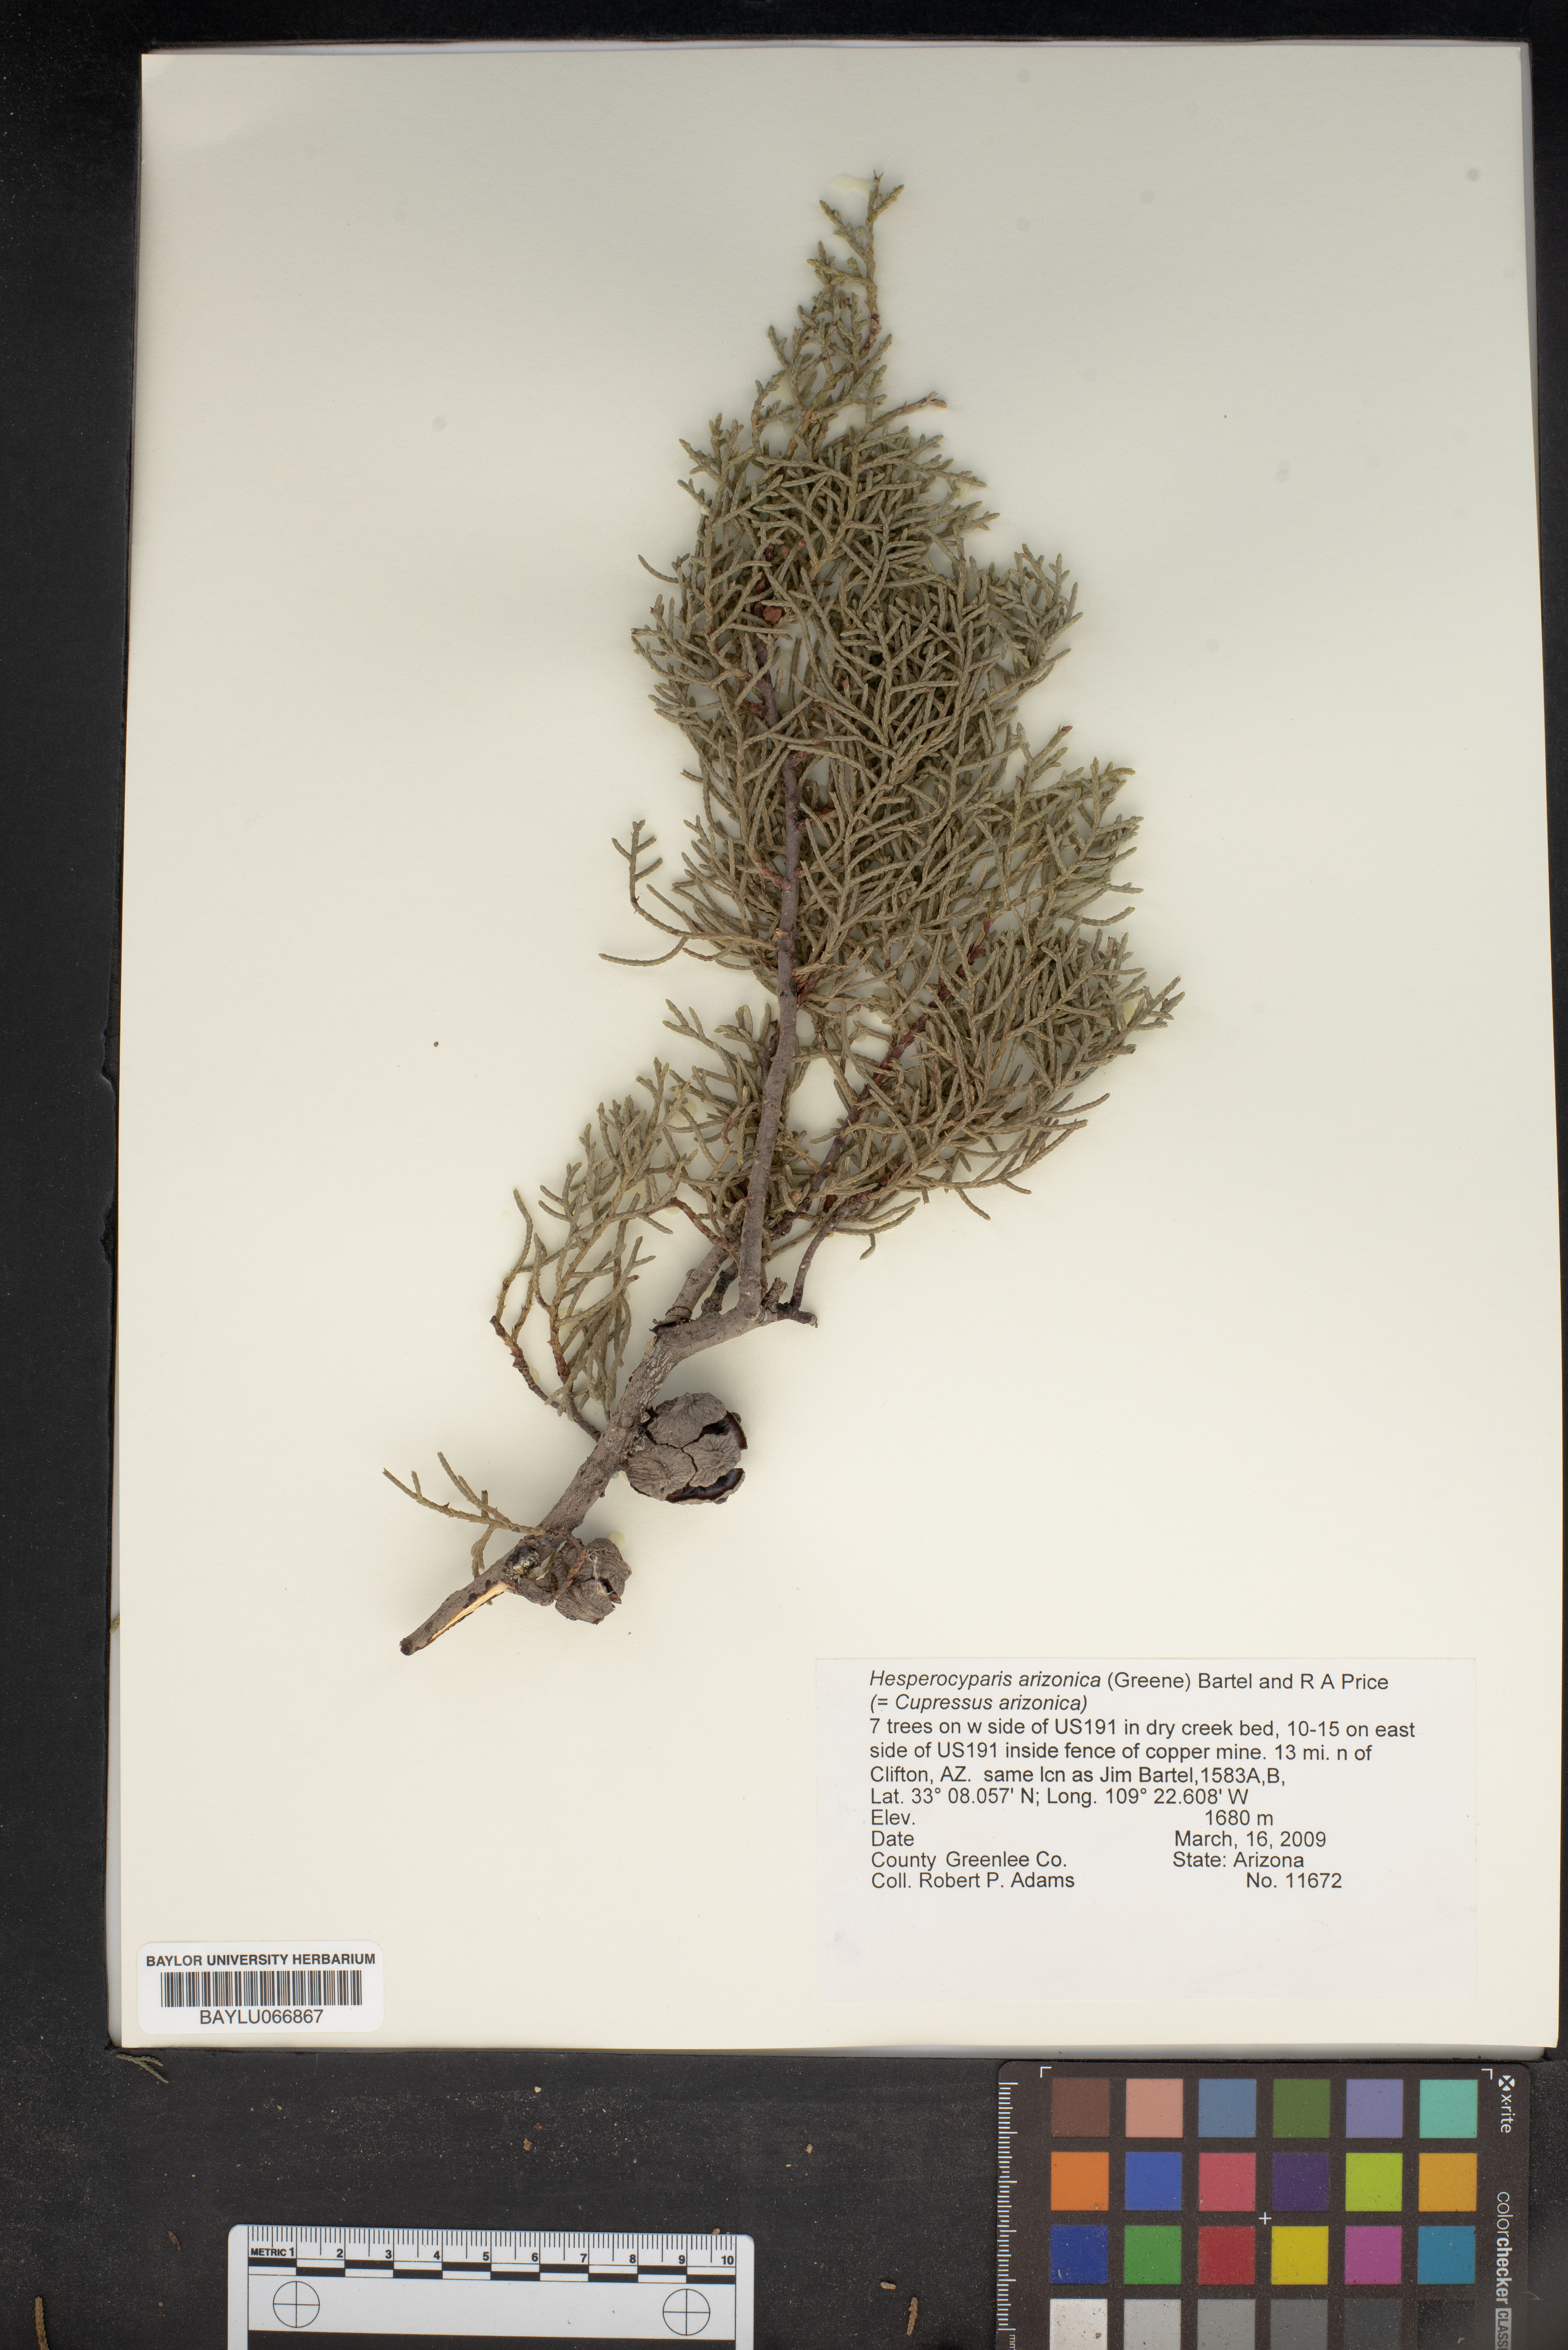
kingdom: Plantae
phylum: Tracheophyta
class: Pinopsida
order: Pinales
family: Cupressaceae
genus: Cupressus
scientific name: Cupressus arizonica
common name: Arizona cypress
